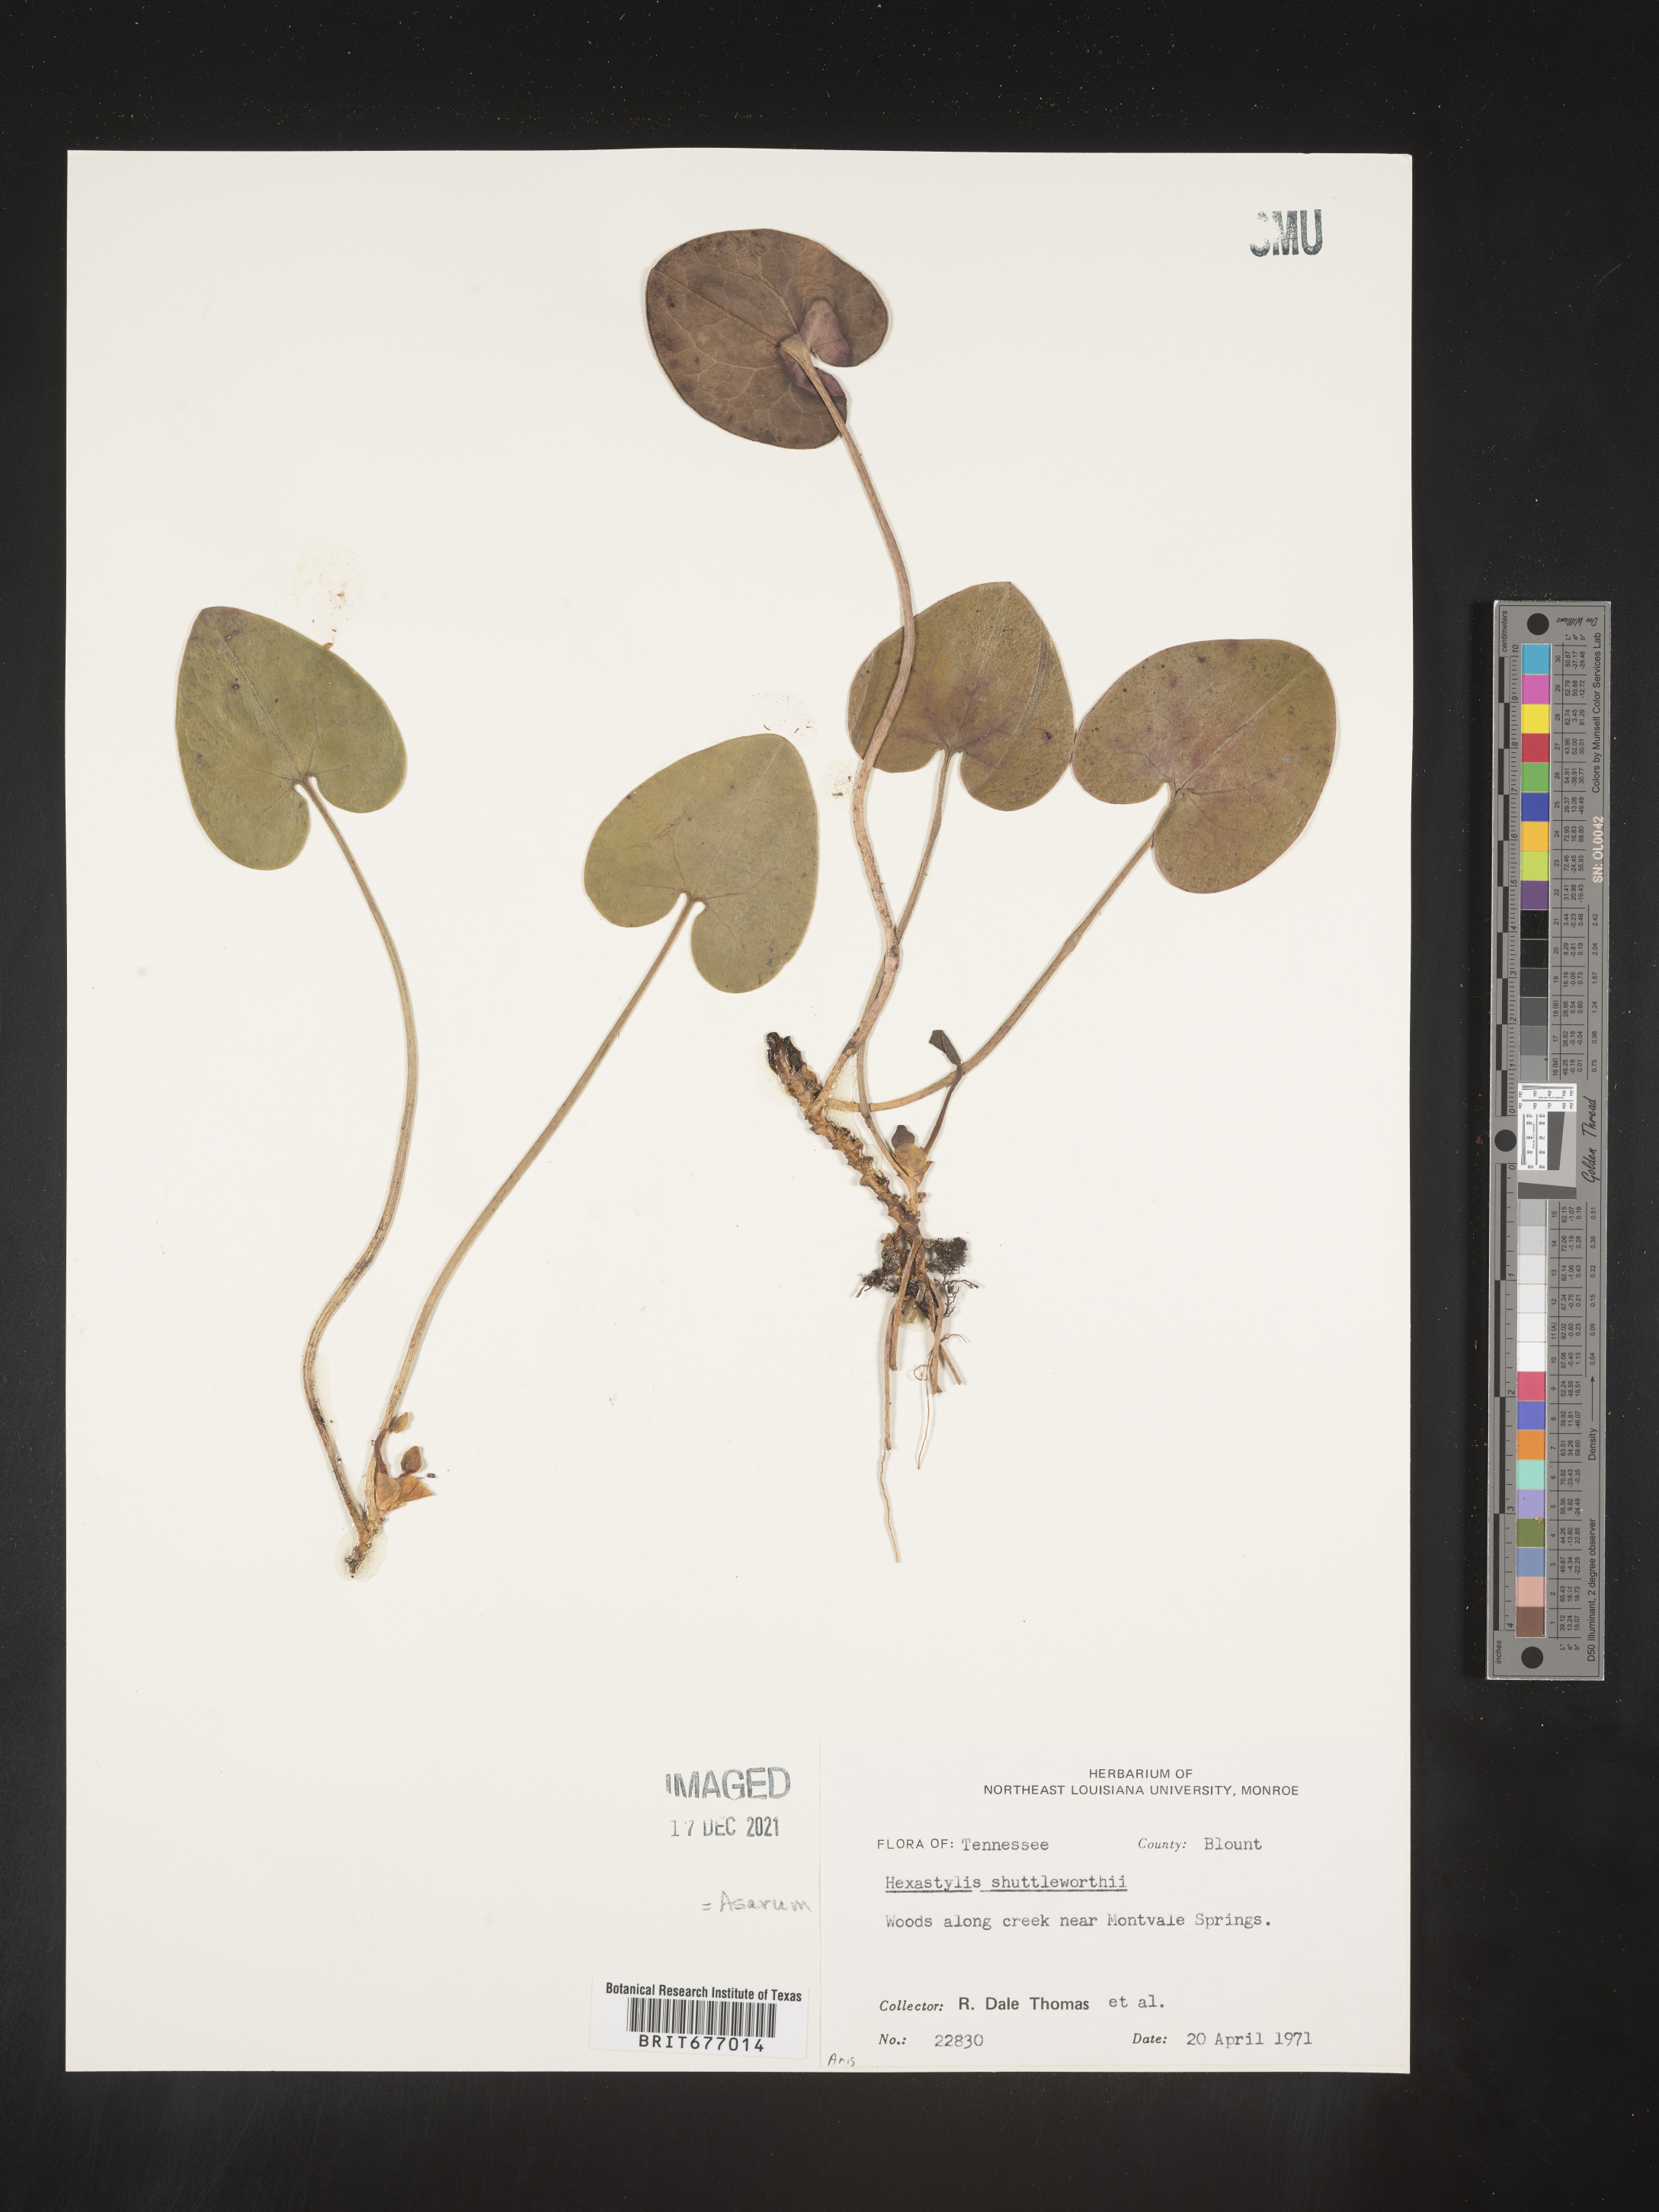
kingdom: Plantae
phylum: Tracheophyta
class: Magnoliopsida
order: Piperales
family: Aristolochiaceae
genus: Asarum
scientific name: Asarum
